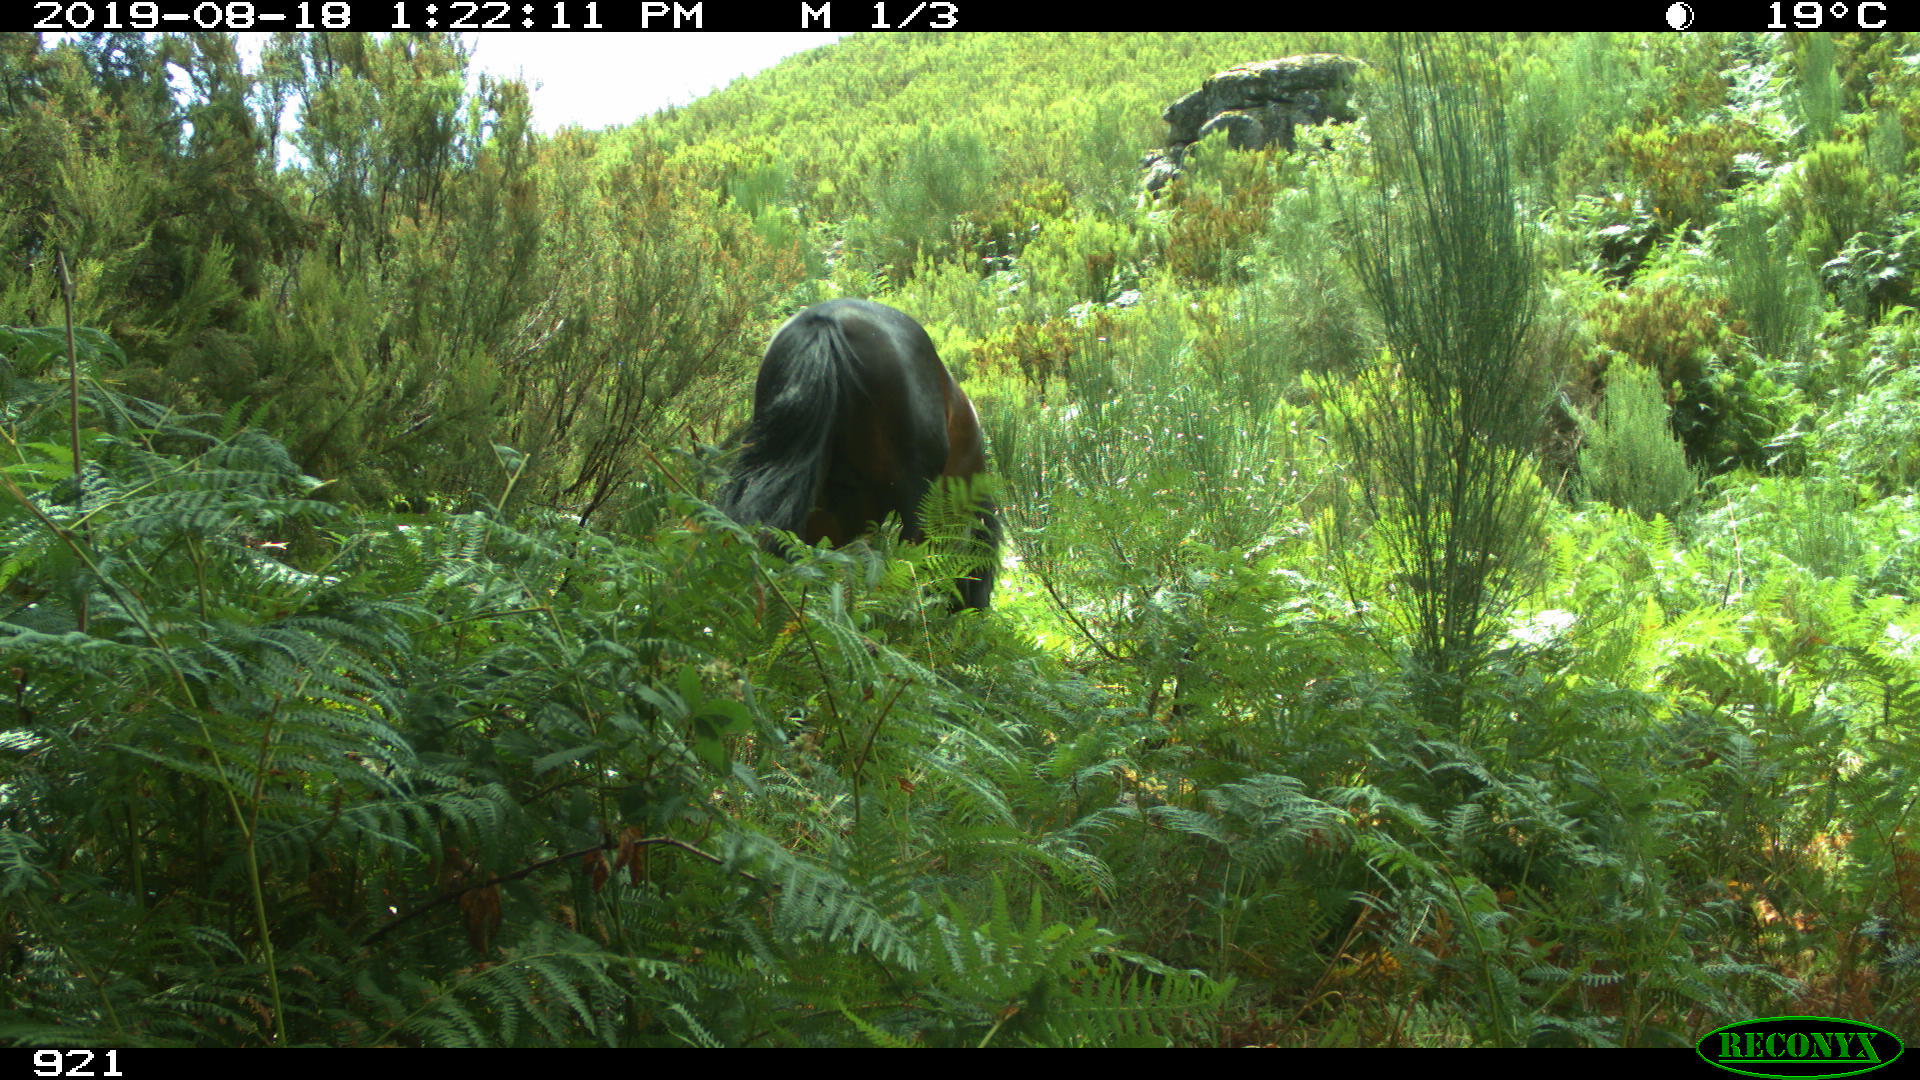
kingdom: Animalia
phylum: Chordata
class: Mammalia
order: Perissodactyla
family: Equidae
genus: Equus
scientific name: Equus caballus
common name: Horse
